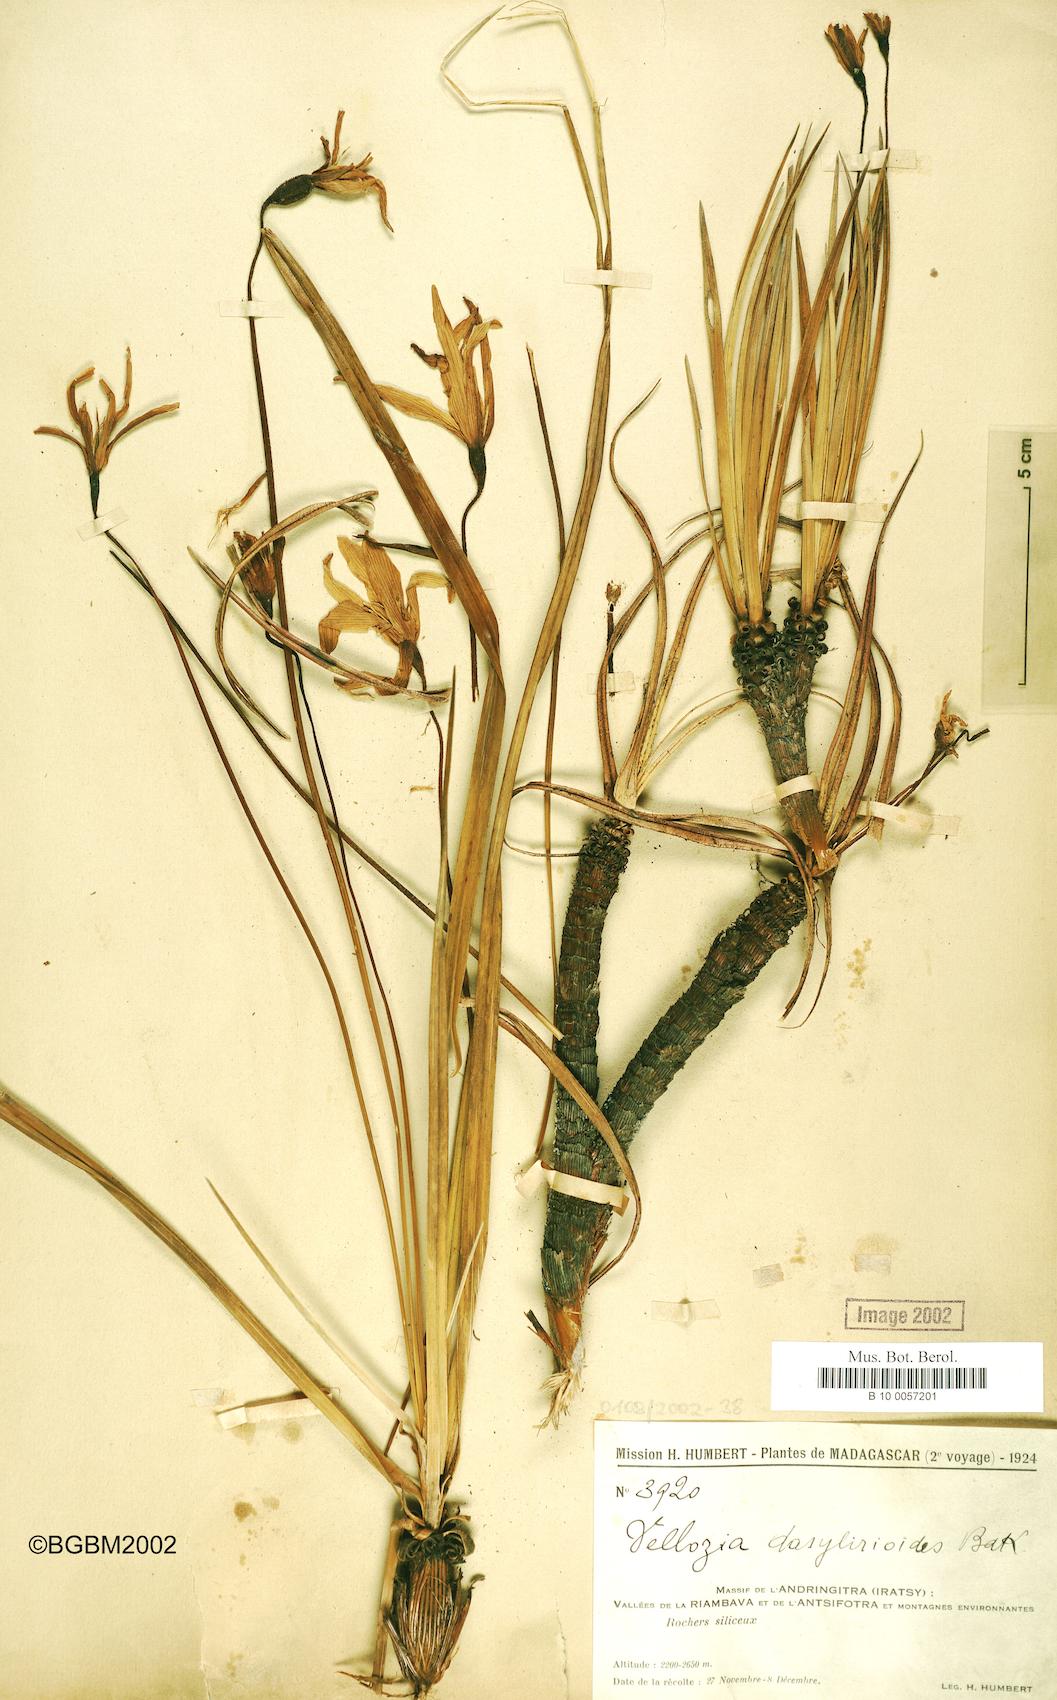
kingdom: Plantae
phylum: Tracheophyta
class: Liliopsida
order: Pandanales
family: Velloziaceae
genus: Xerophyta
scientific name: Xerophyta dasylirioides
